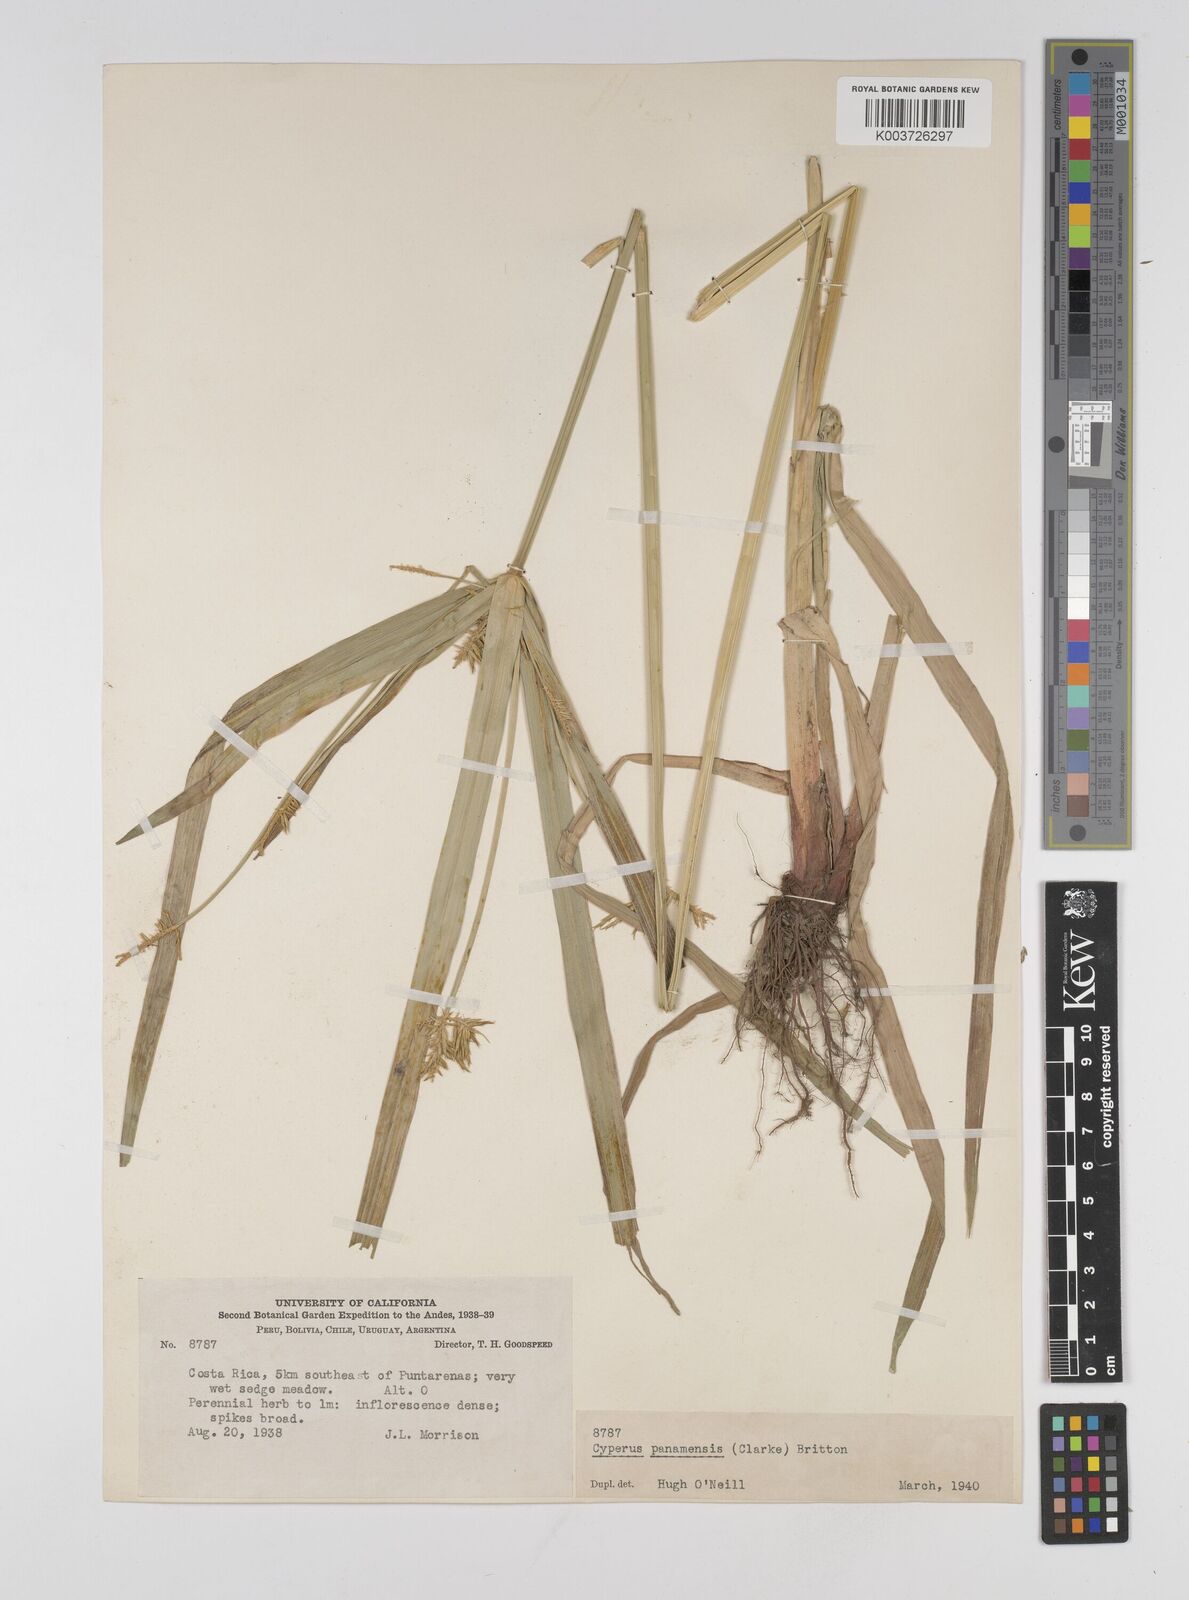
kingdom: Plantae
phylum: Tracheophyta
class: Liliopsida
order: Poales
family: Cyperaceae
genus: Cyperus
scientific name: Cyperus panamensis
